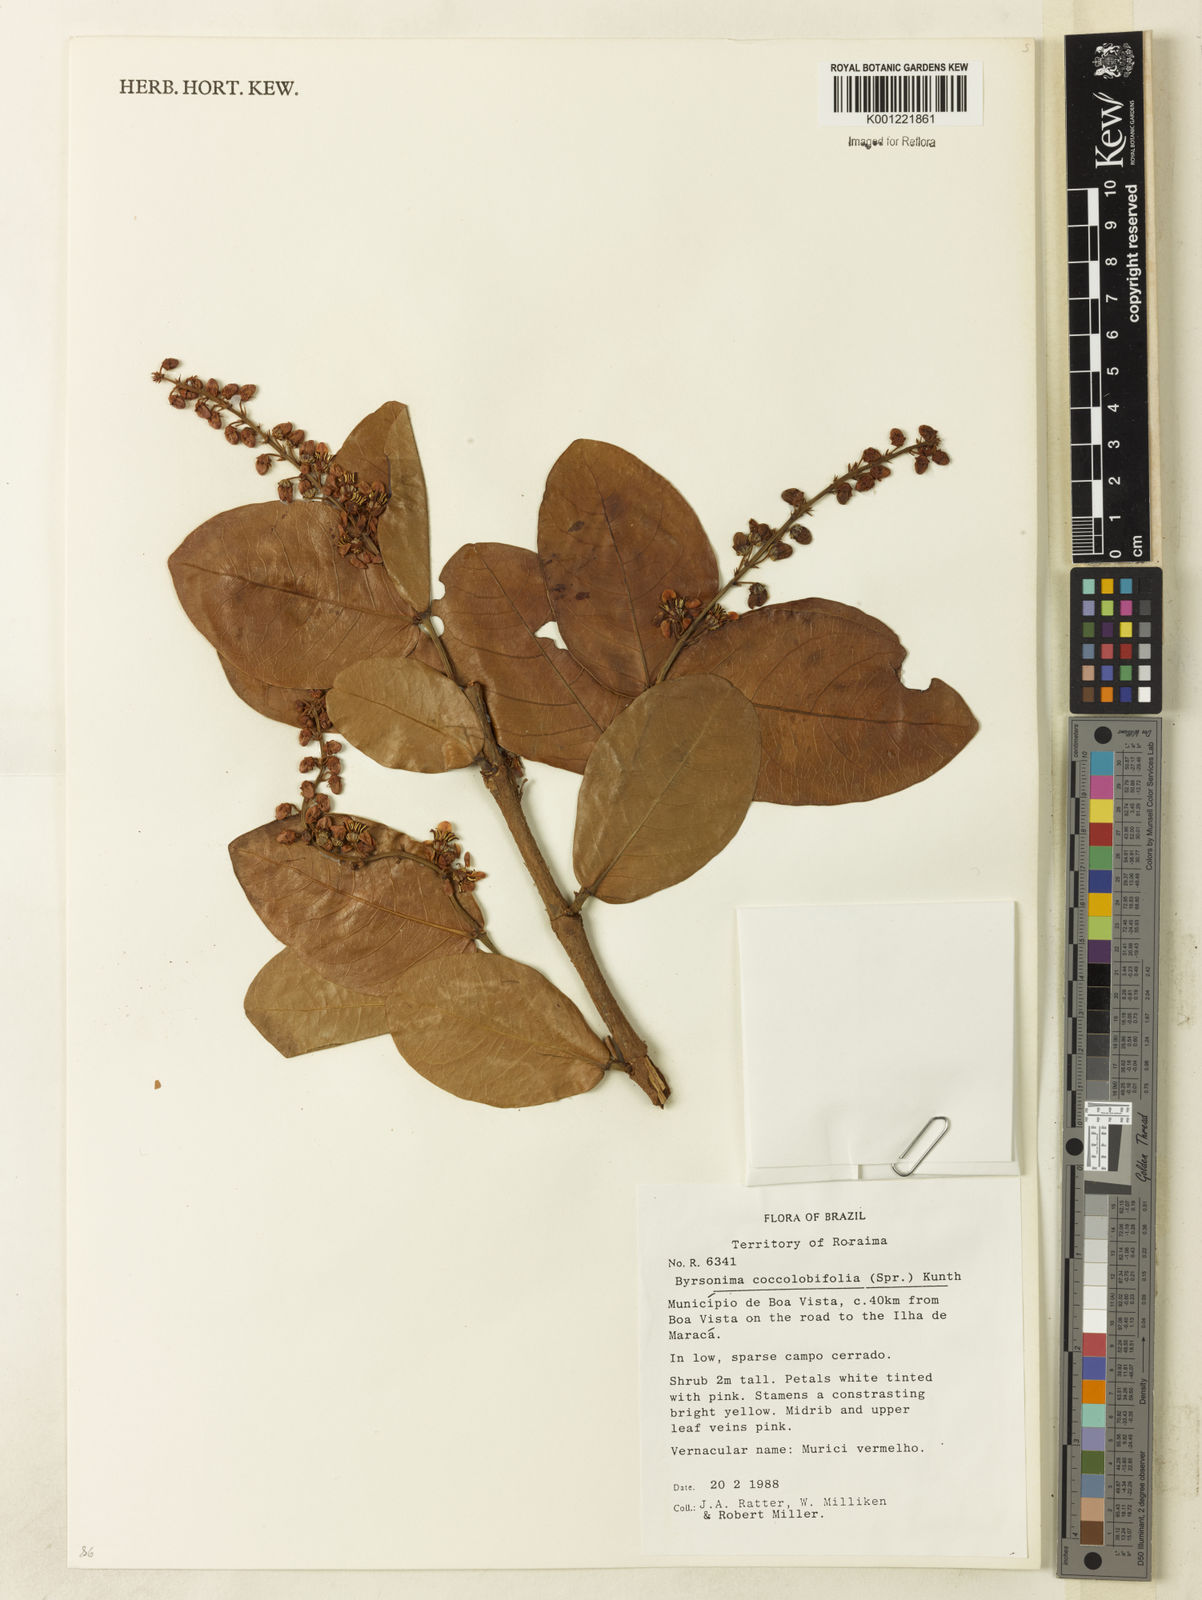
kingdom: Plantae
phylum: Tracheophyta
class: Magnoliopsida
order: Malpighiales
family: Malpighiaceae
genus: Byrsonima
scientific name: Byrsonima coccolobifolia
